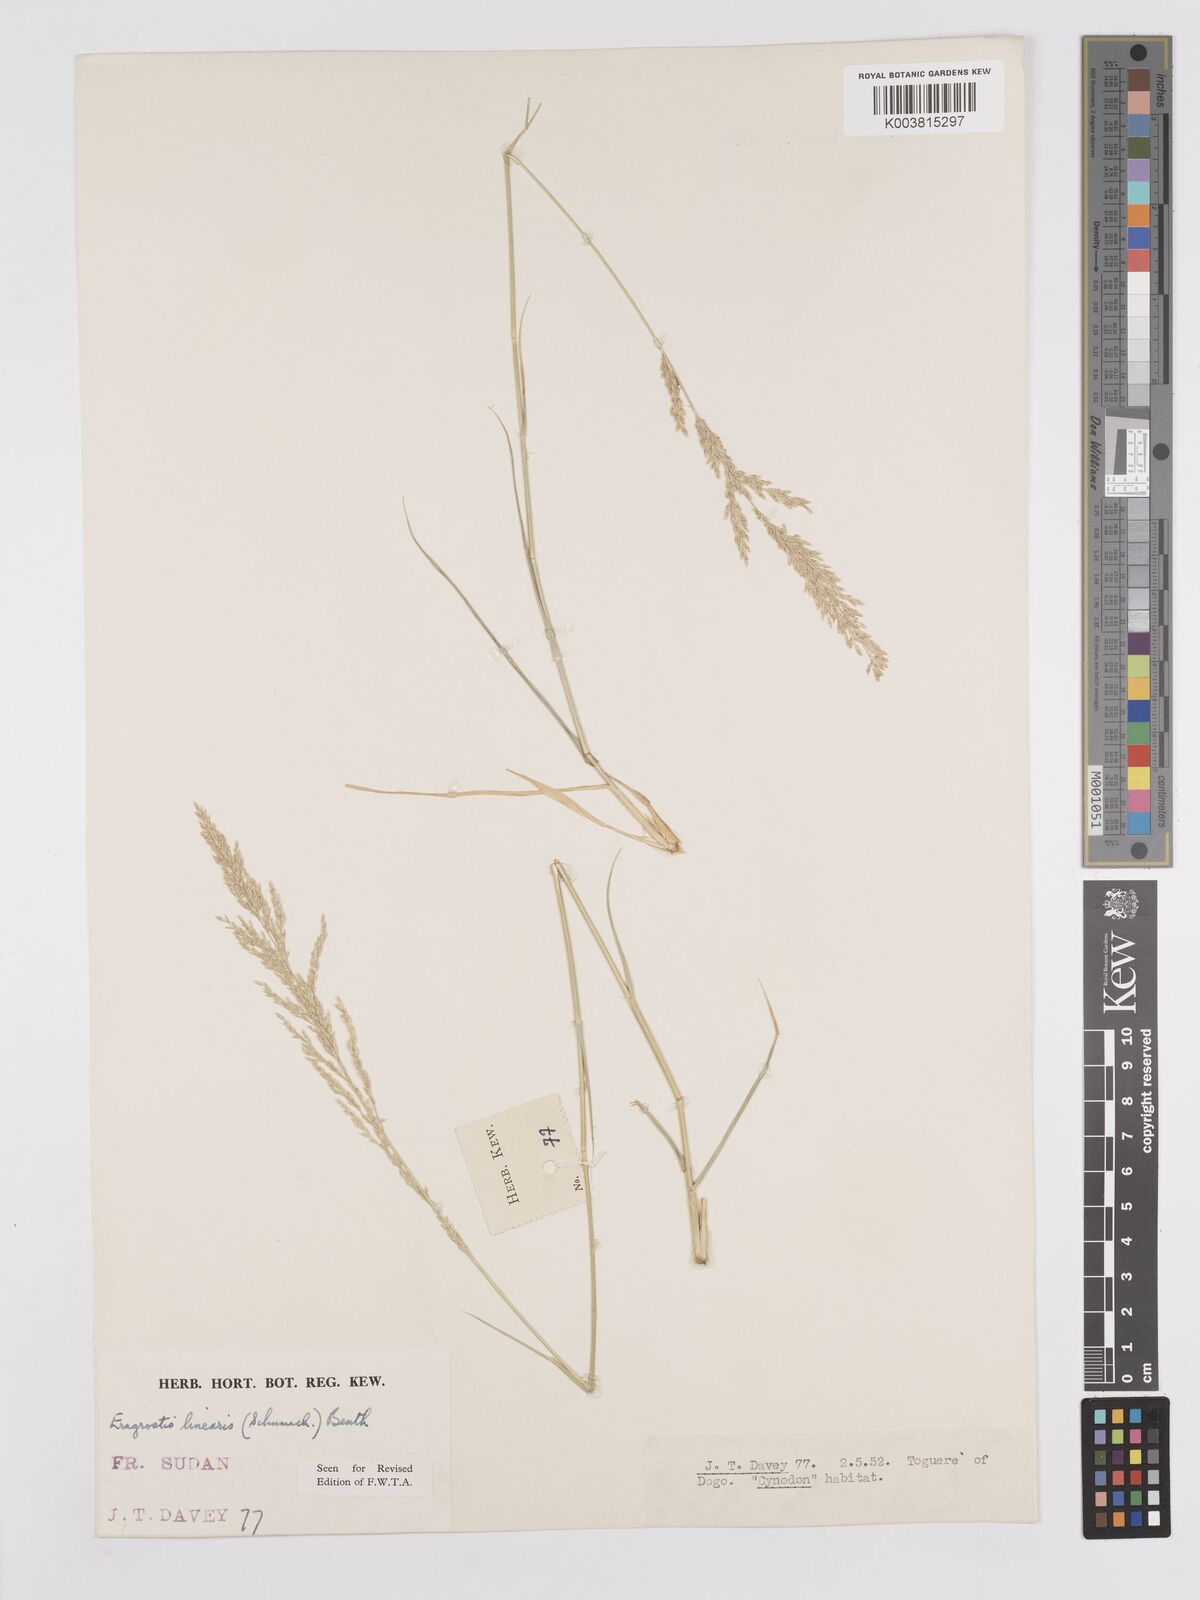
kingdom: Plantae
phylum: Tracheophyta
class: Liliopsida
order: Poales
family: Poaceae
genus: Eragrostis
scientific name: Eragrostis prolifera
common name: Dominican lovegrass
